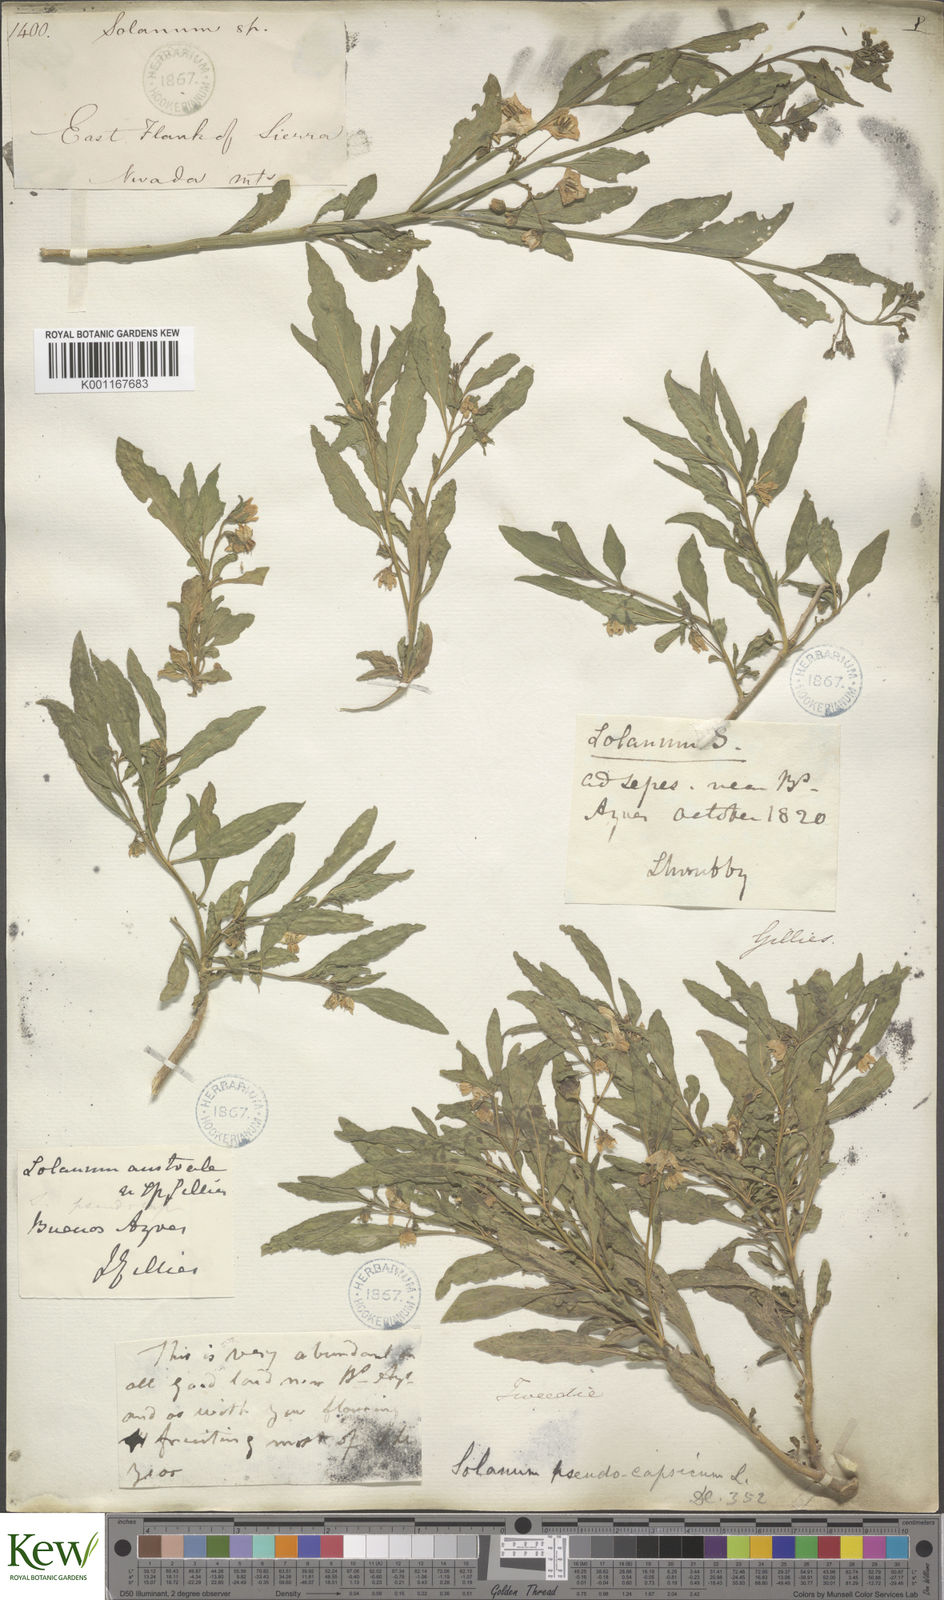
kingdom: Plantae
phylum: Tracheophyta
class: Magnoliopsida
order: Solanales
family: Solanaceae
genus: Solanum
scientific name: Solanum pseudocapsicum
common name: Jerusalem cherry
